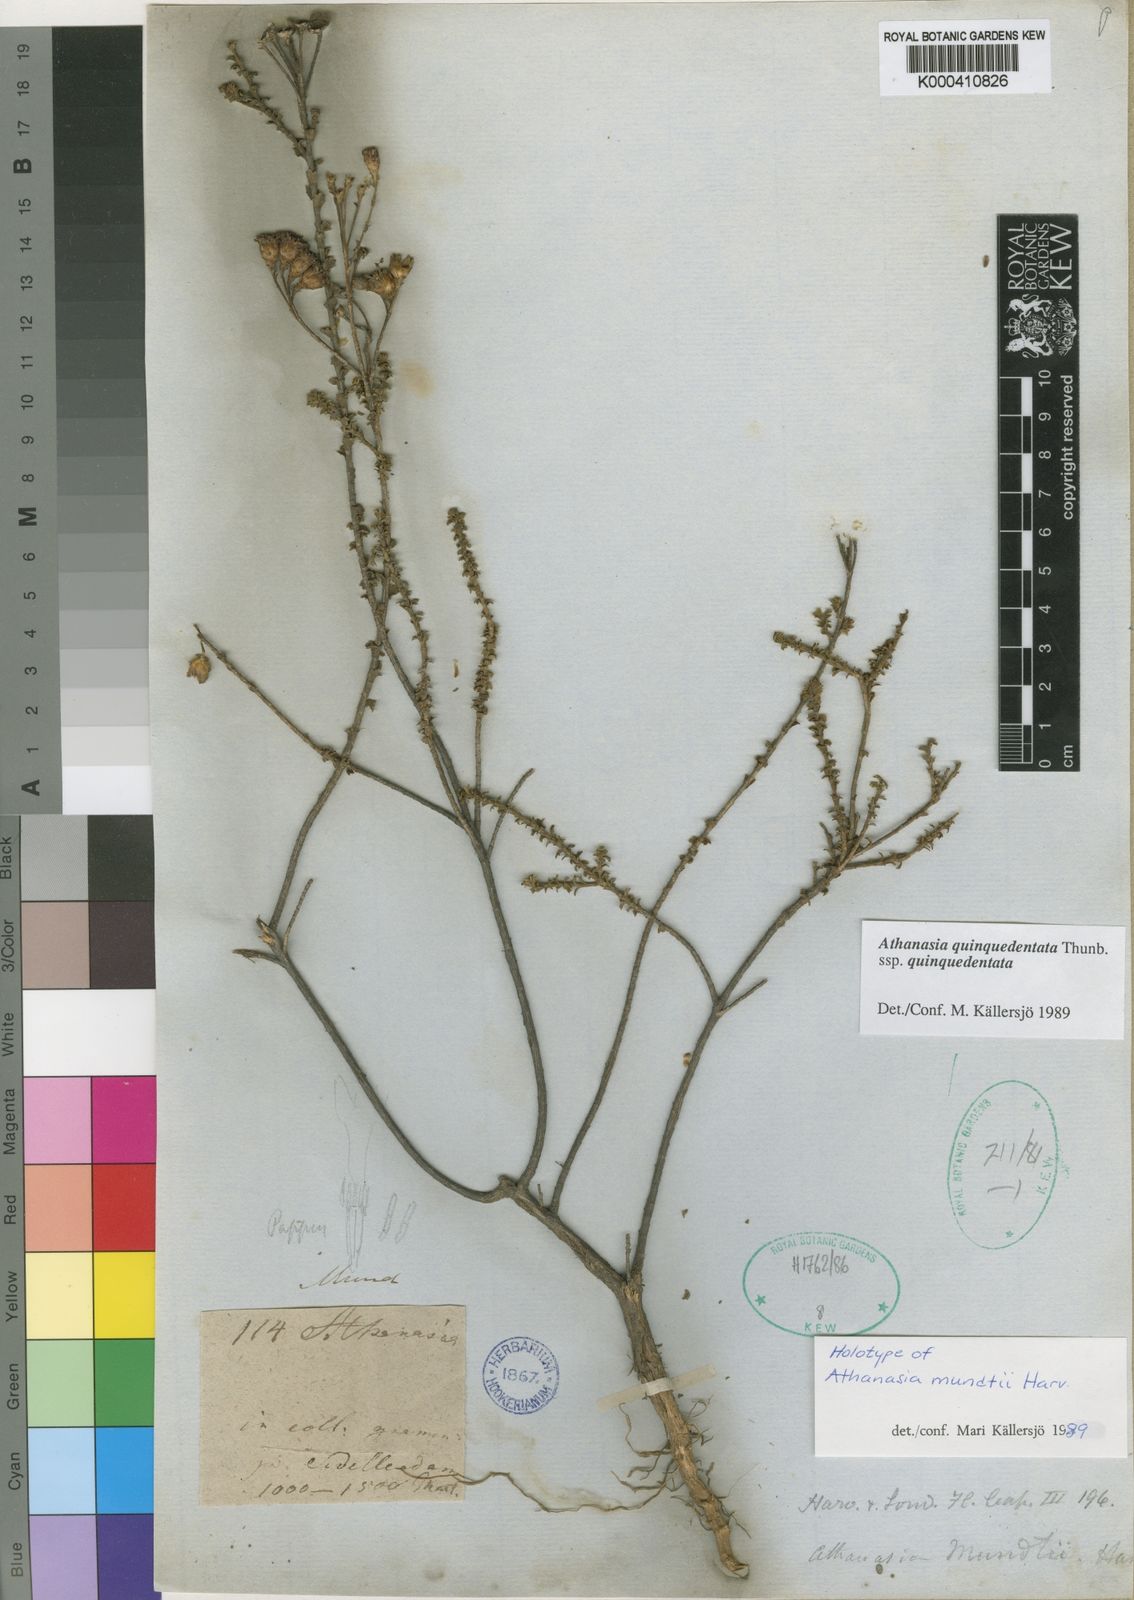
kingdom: Plantae
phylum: Tracheophyta
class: Magnoliopsida
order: Asterales
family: Asteraceae
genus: Athanasia
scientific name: Athanasia quinquedentata
